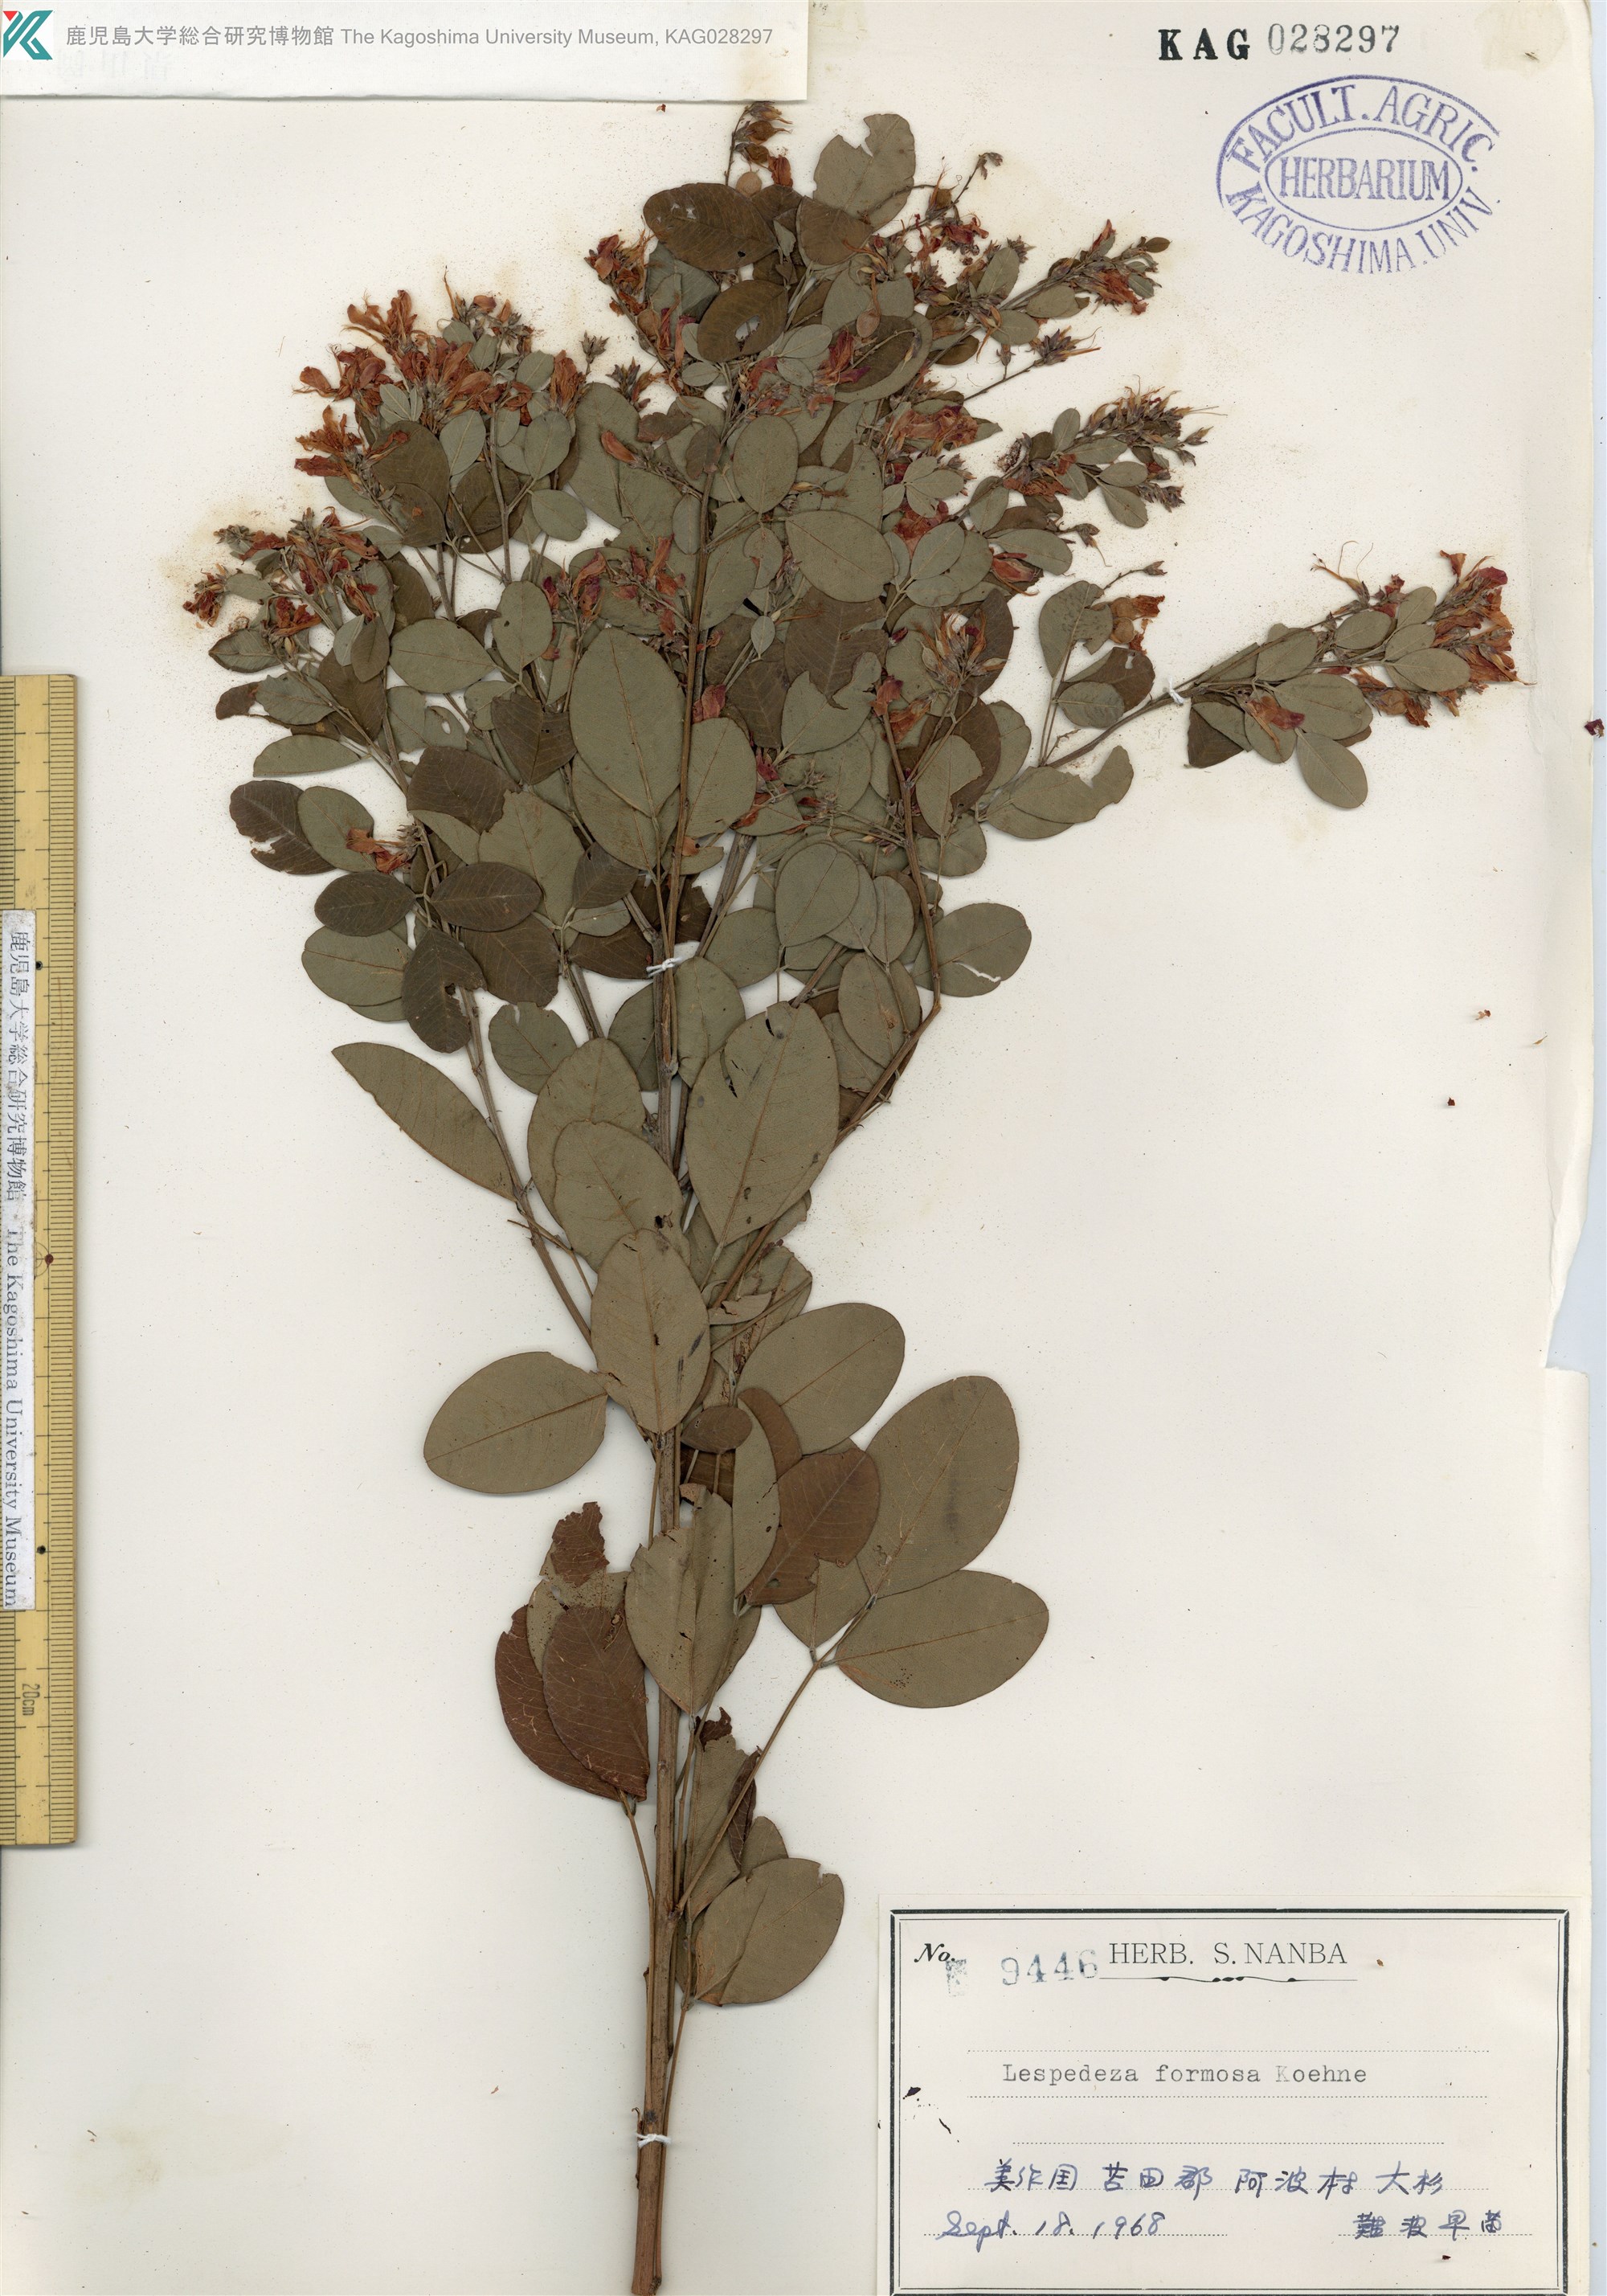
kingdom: Plantae
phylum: Tracheophyta
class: Magnoliopsida
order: Fabales
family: Fabaceae
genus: Lespedeza
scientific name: Lespedeza thunbergii
